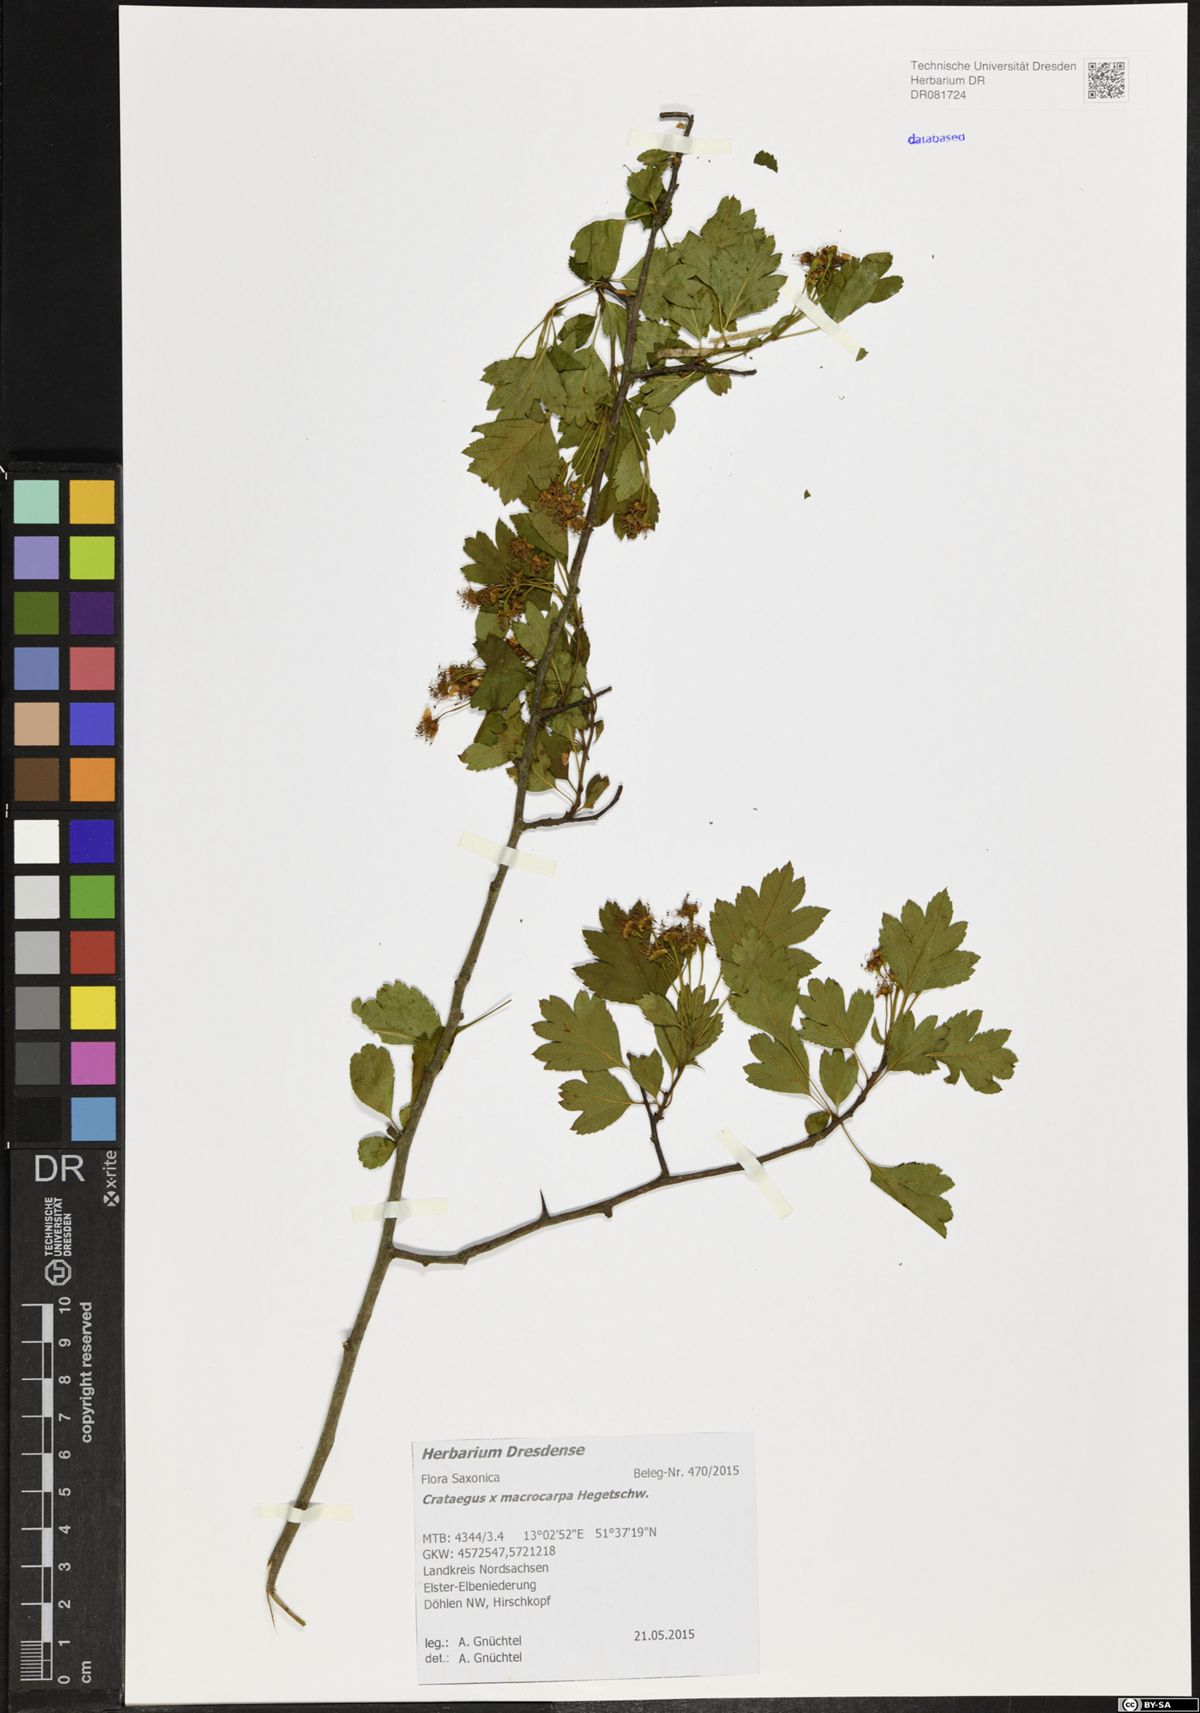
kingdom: Plantae
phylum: Tracheophyta
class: Magnoliopsida
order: Rosales
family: Rosaceae
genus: Crataegus
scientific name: Crataegus macrocarpa
